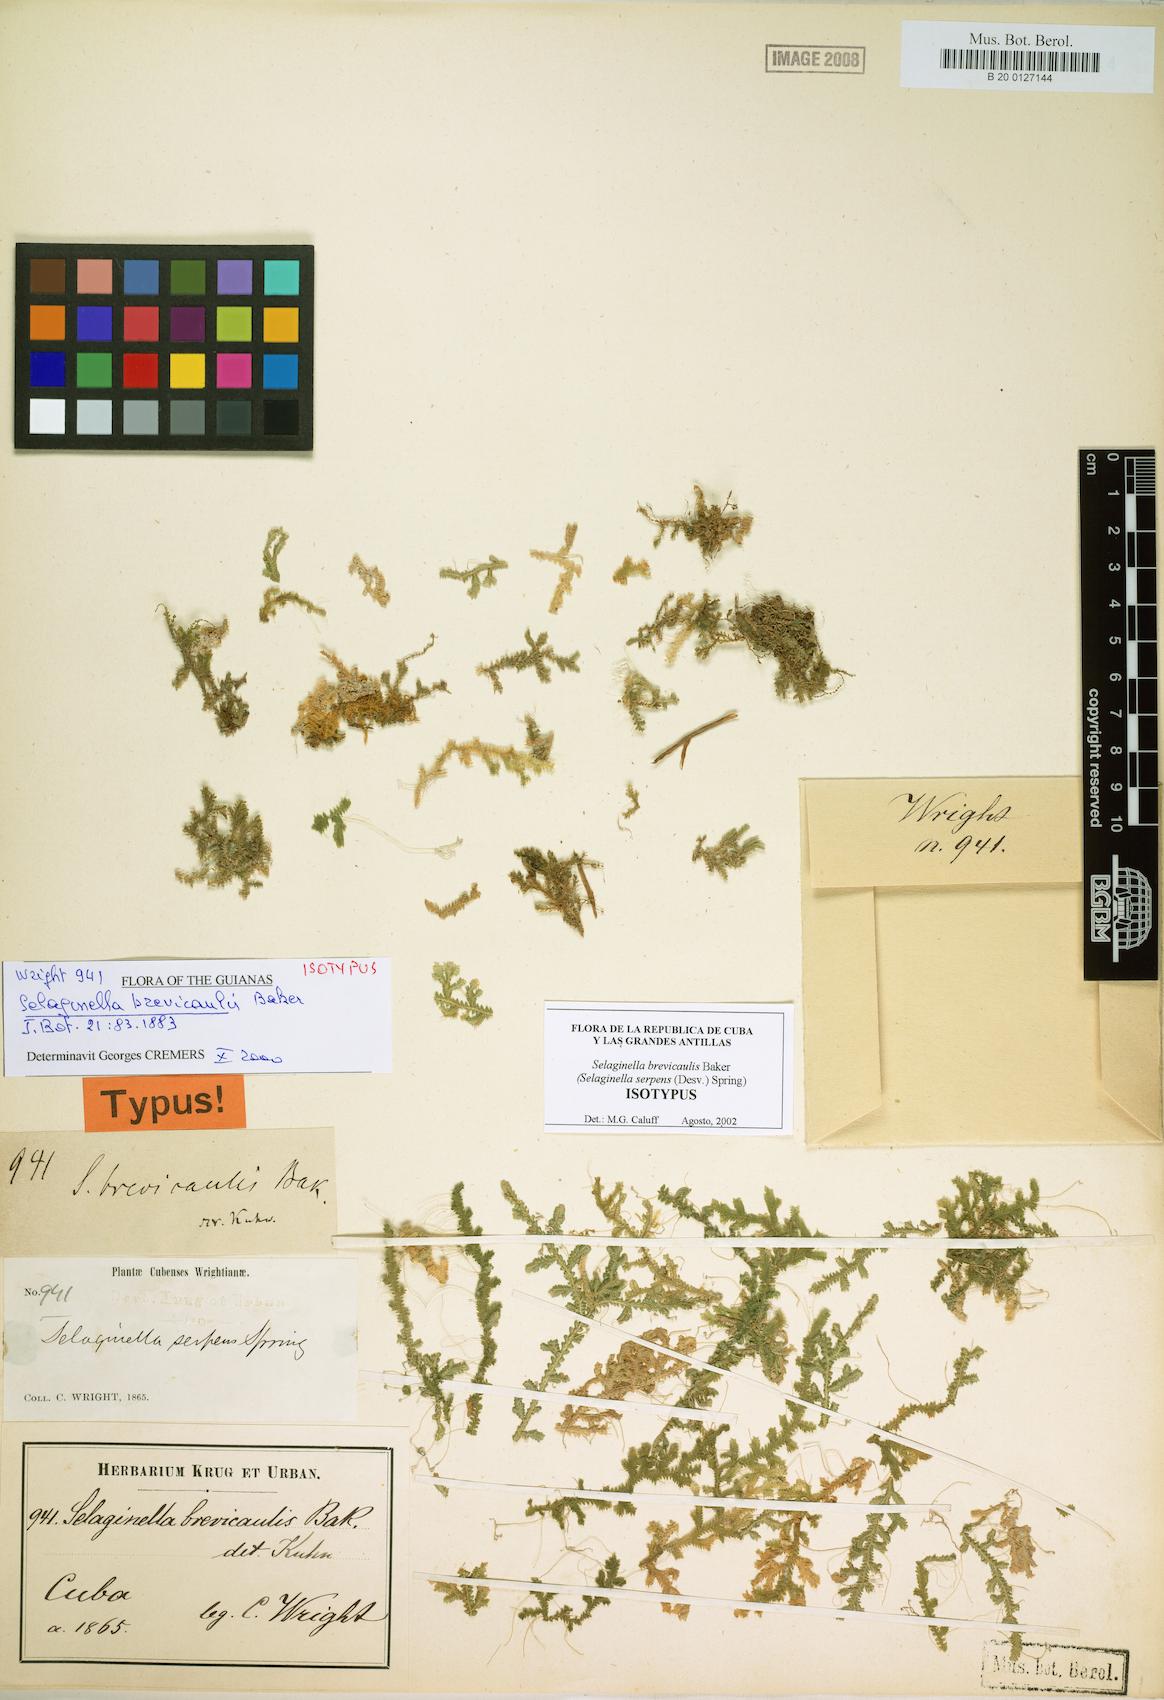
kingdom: Plantae
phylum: Tracheophyta
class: Lycopodiopsida
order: Selaginellales
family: Selaginellaceae
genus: Selaginella
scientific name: Selaginella heterodonta
